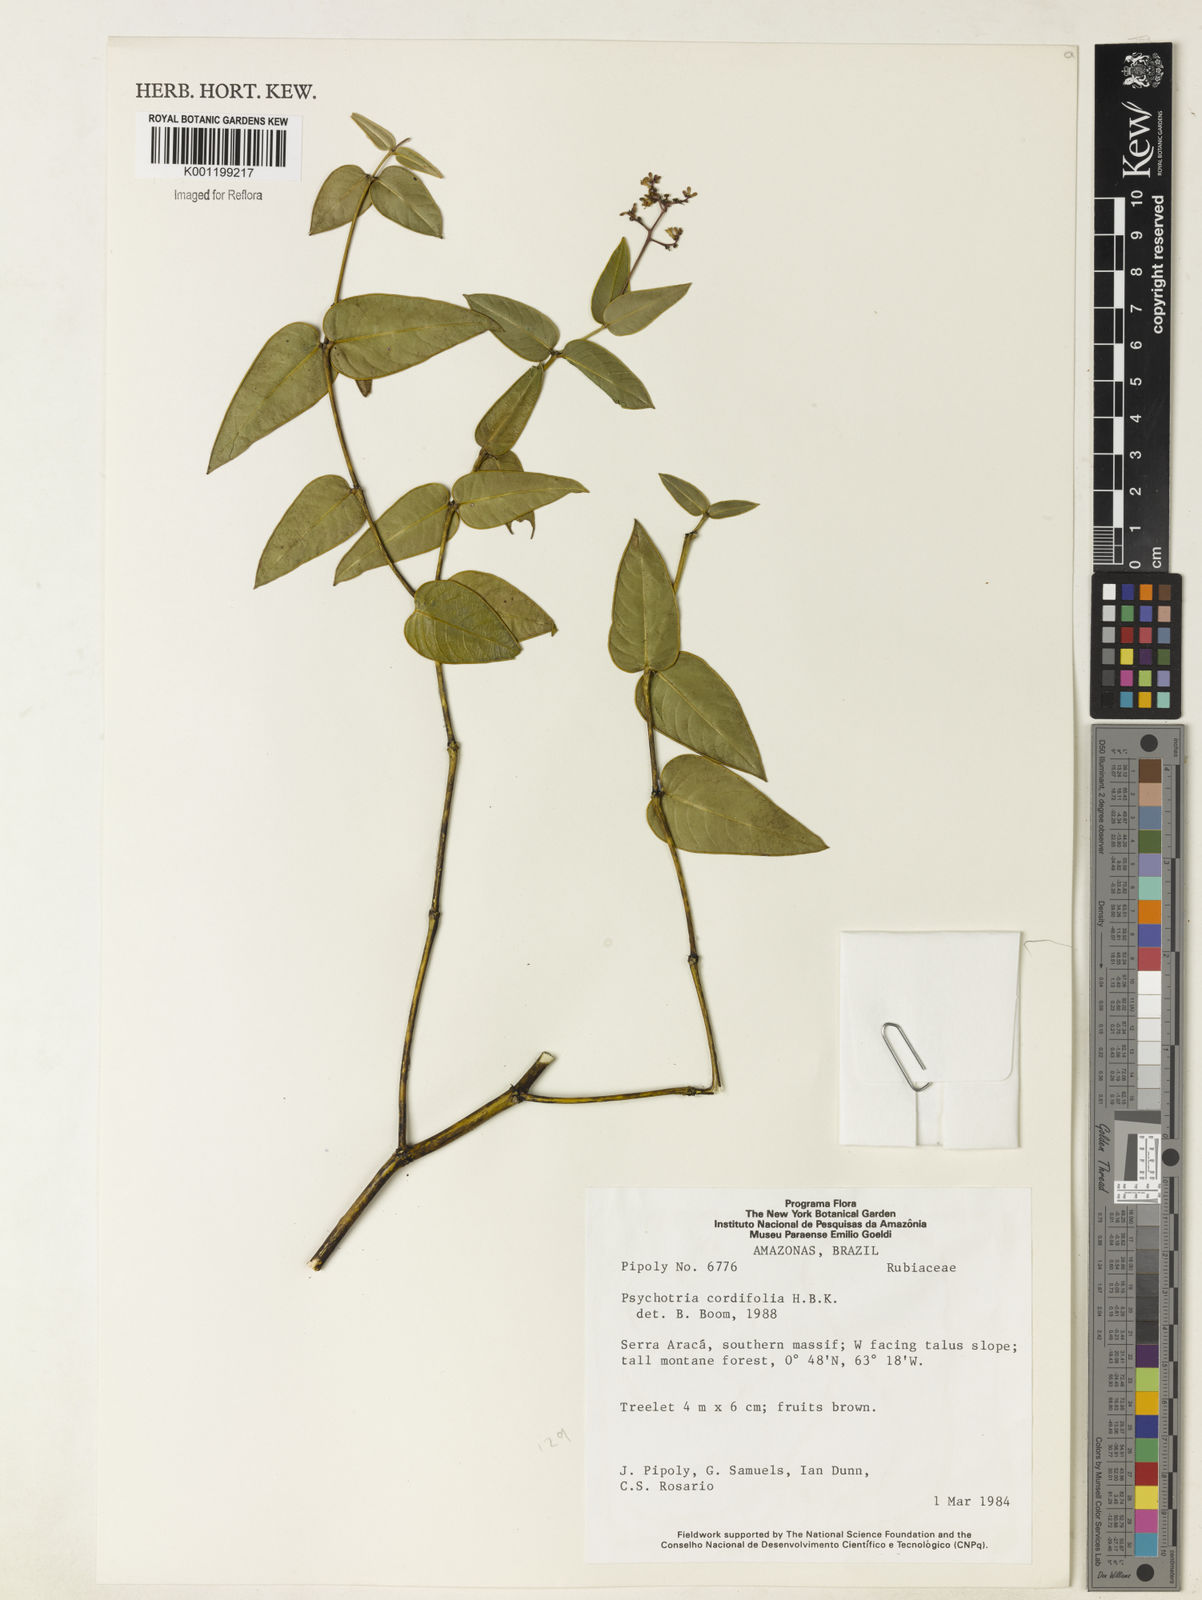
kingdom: Plantae
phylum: Tracheophyta
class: Magnoliopsida
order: Gentianales
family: Rubiaceae
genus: Geophila
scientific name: Geophila macropoda
